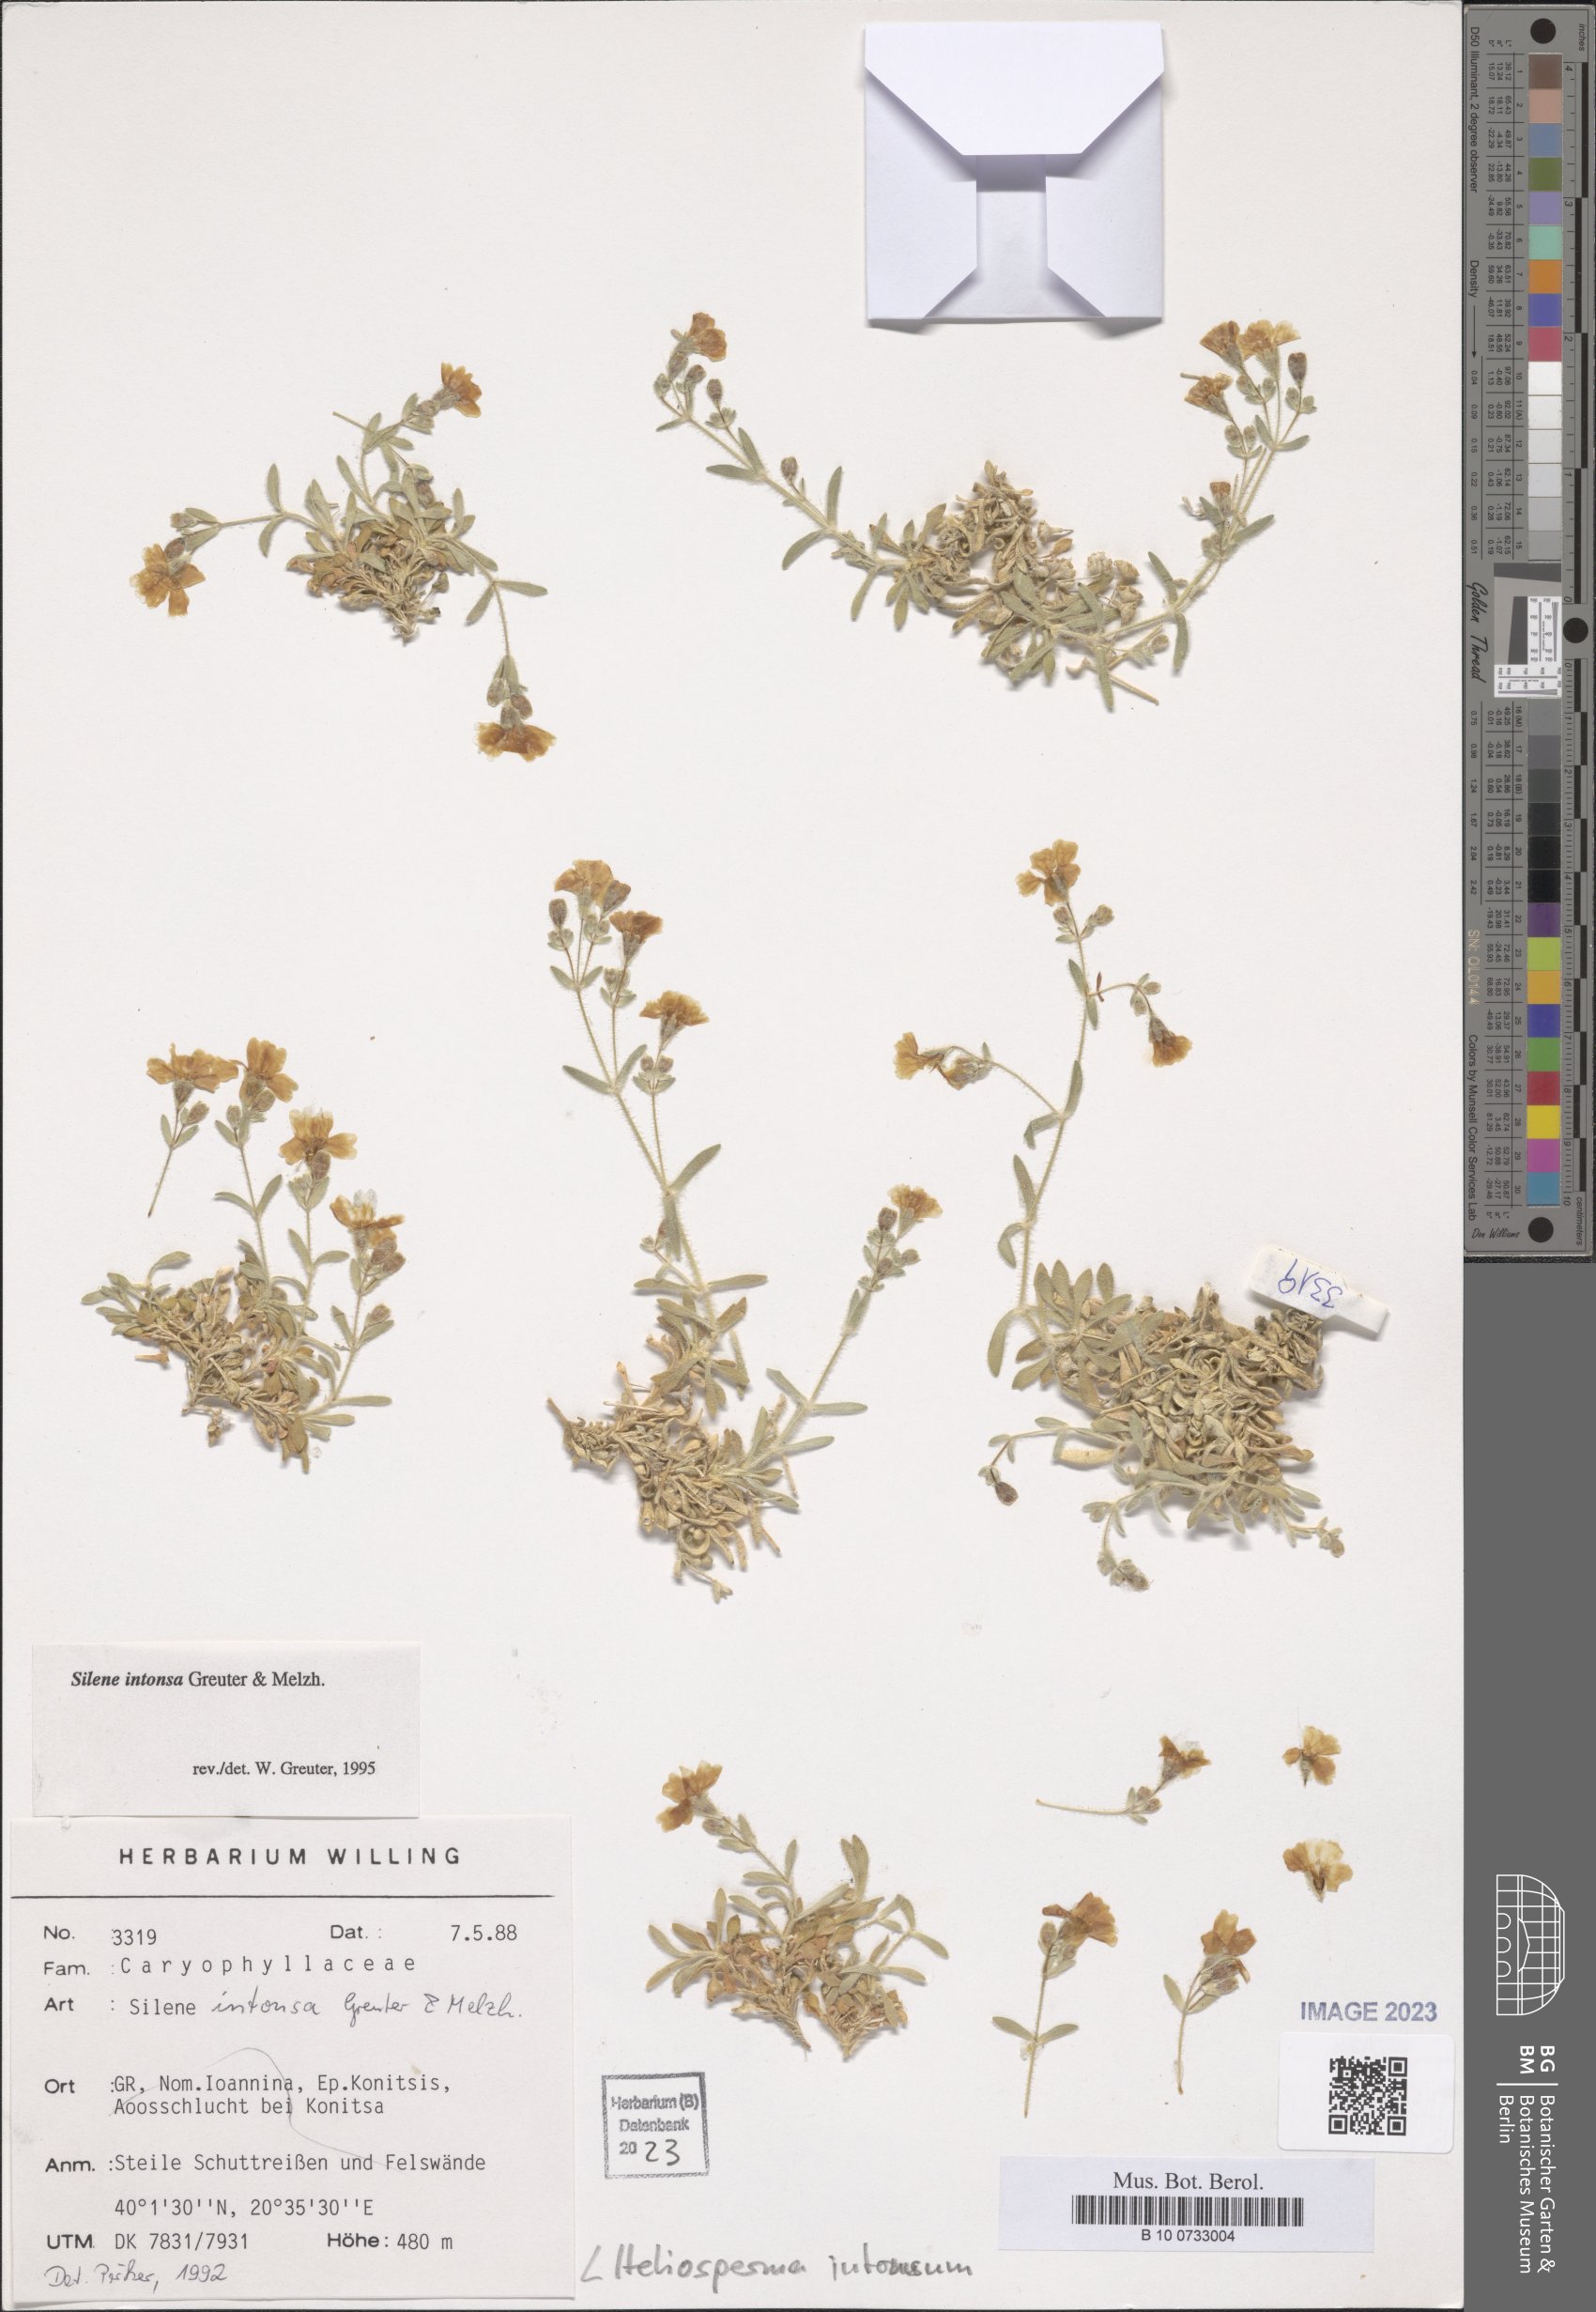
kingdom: Plantae
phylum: Tracheophyta
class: Magnoliopsida
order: Caryophyllales
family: Caryophyllaceae
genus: Heliosperma
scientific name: Heliosperma intonsum
